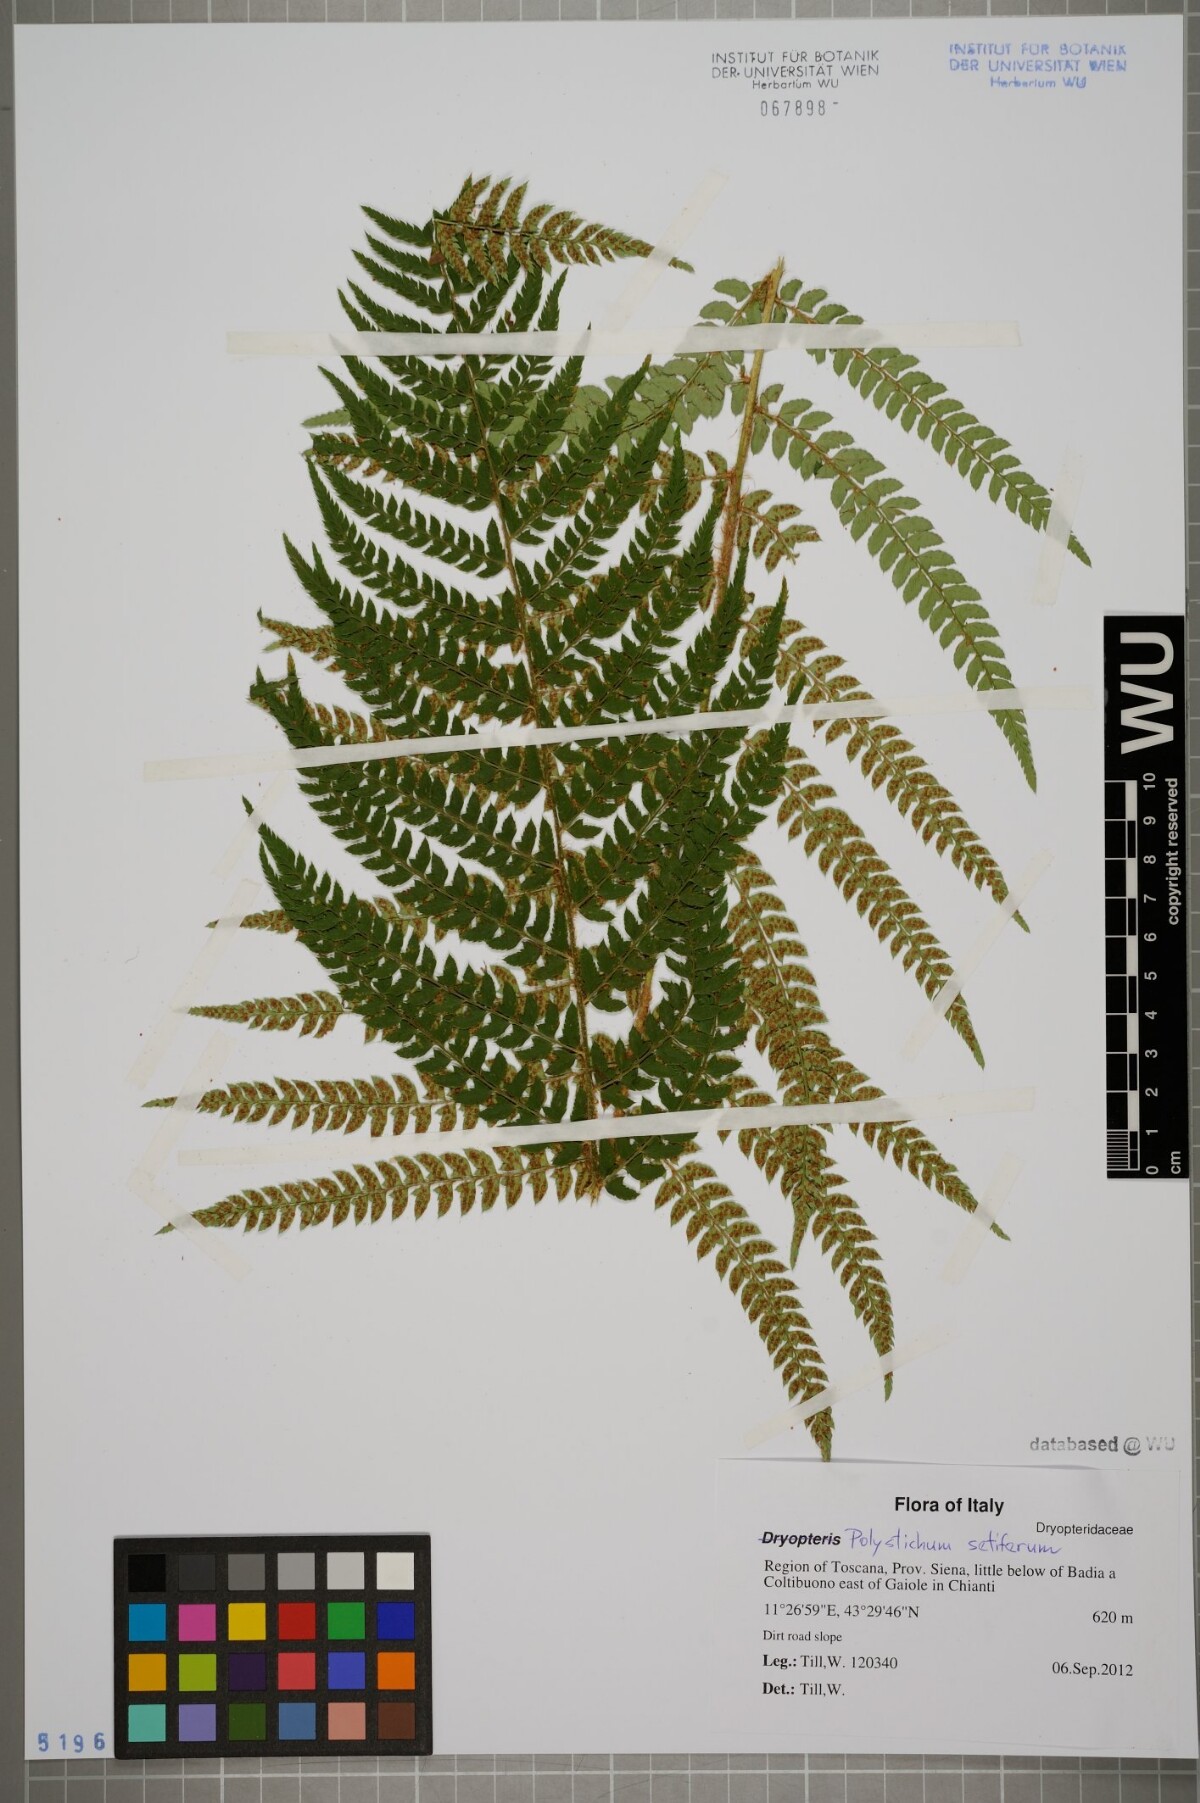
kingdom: Plantae
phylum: Tracheophyta
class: Polypodiopsida
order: Polypodiales
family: Dryopteridaceae
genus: Polystichum
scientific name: Polystichum setiferum
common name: Soft shield-fern
